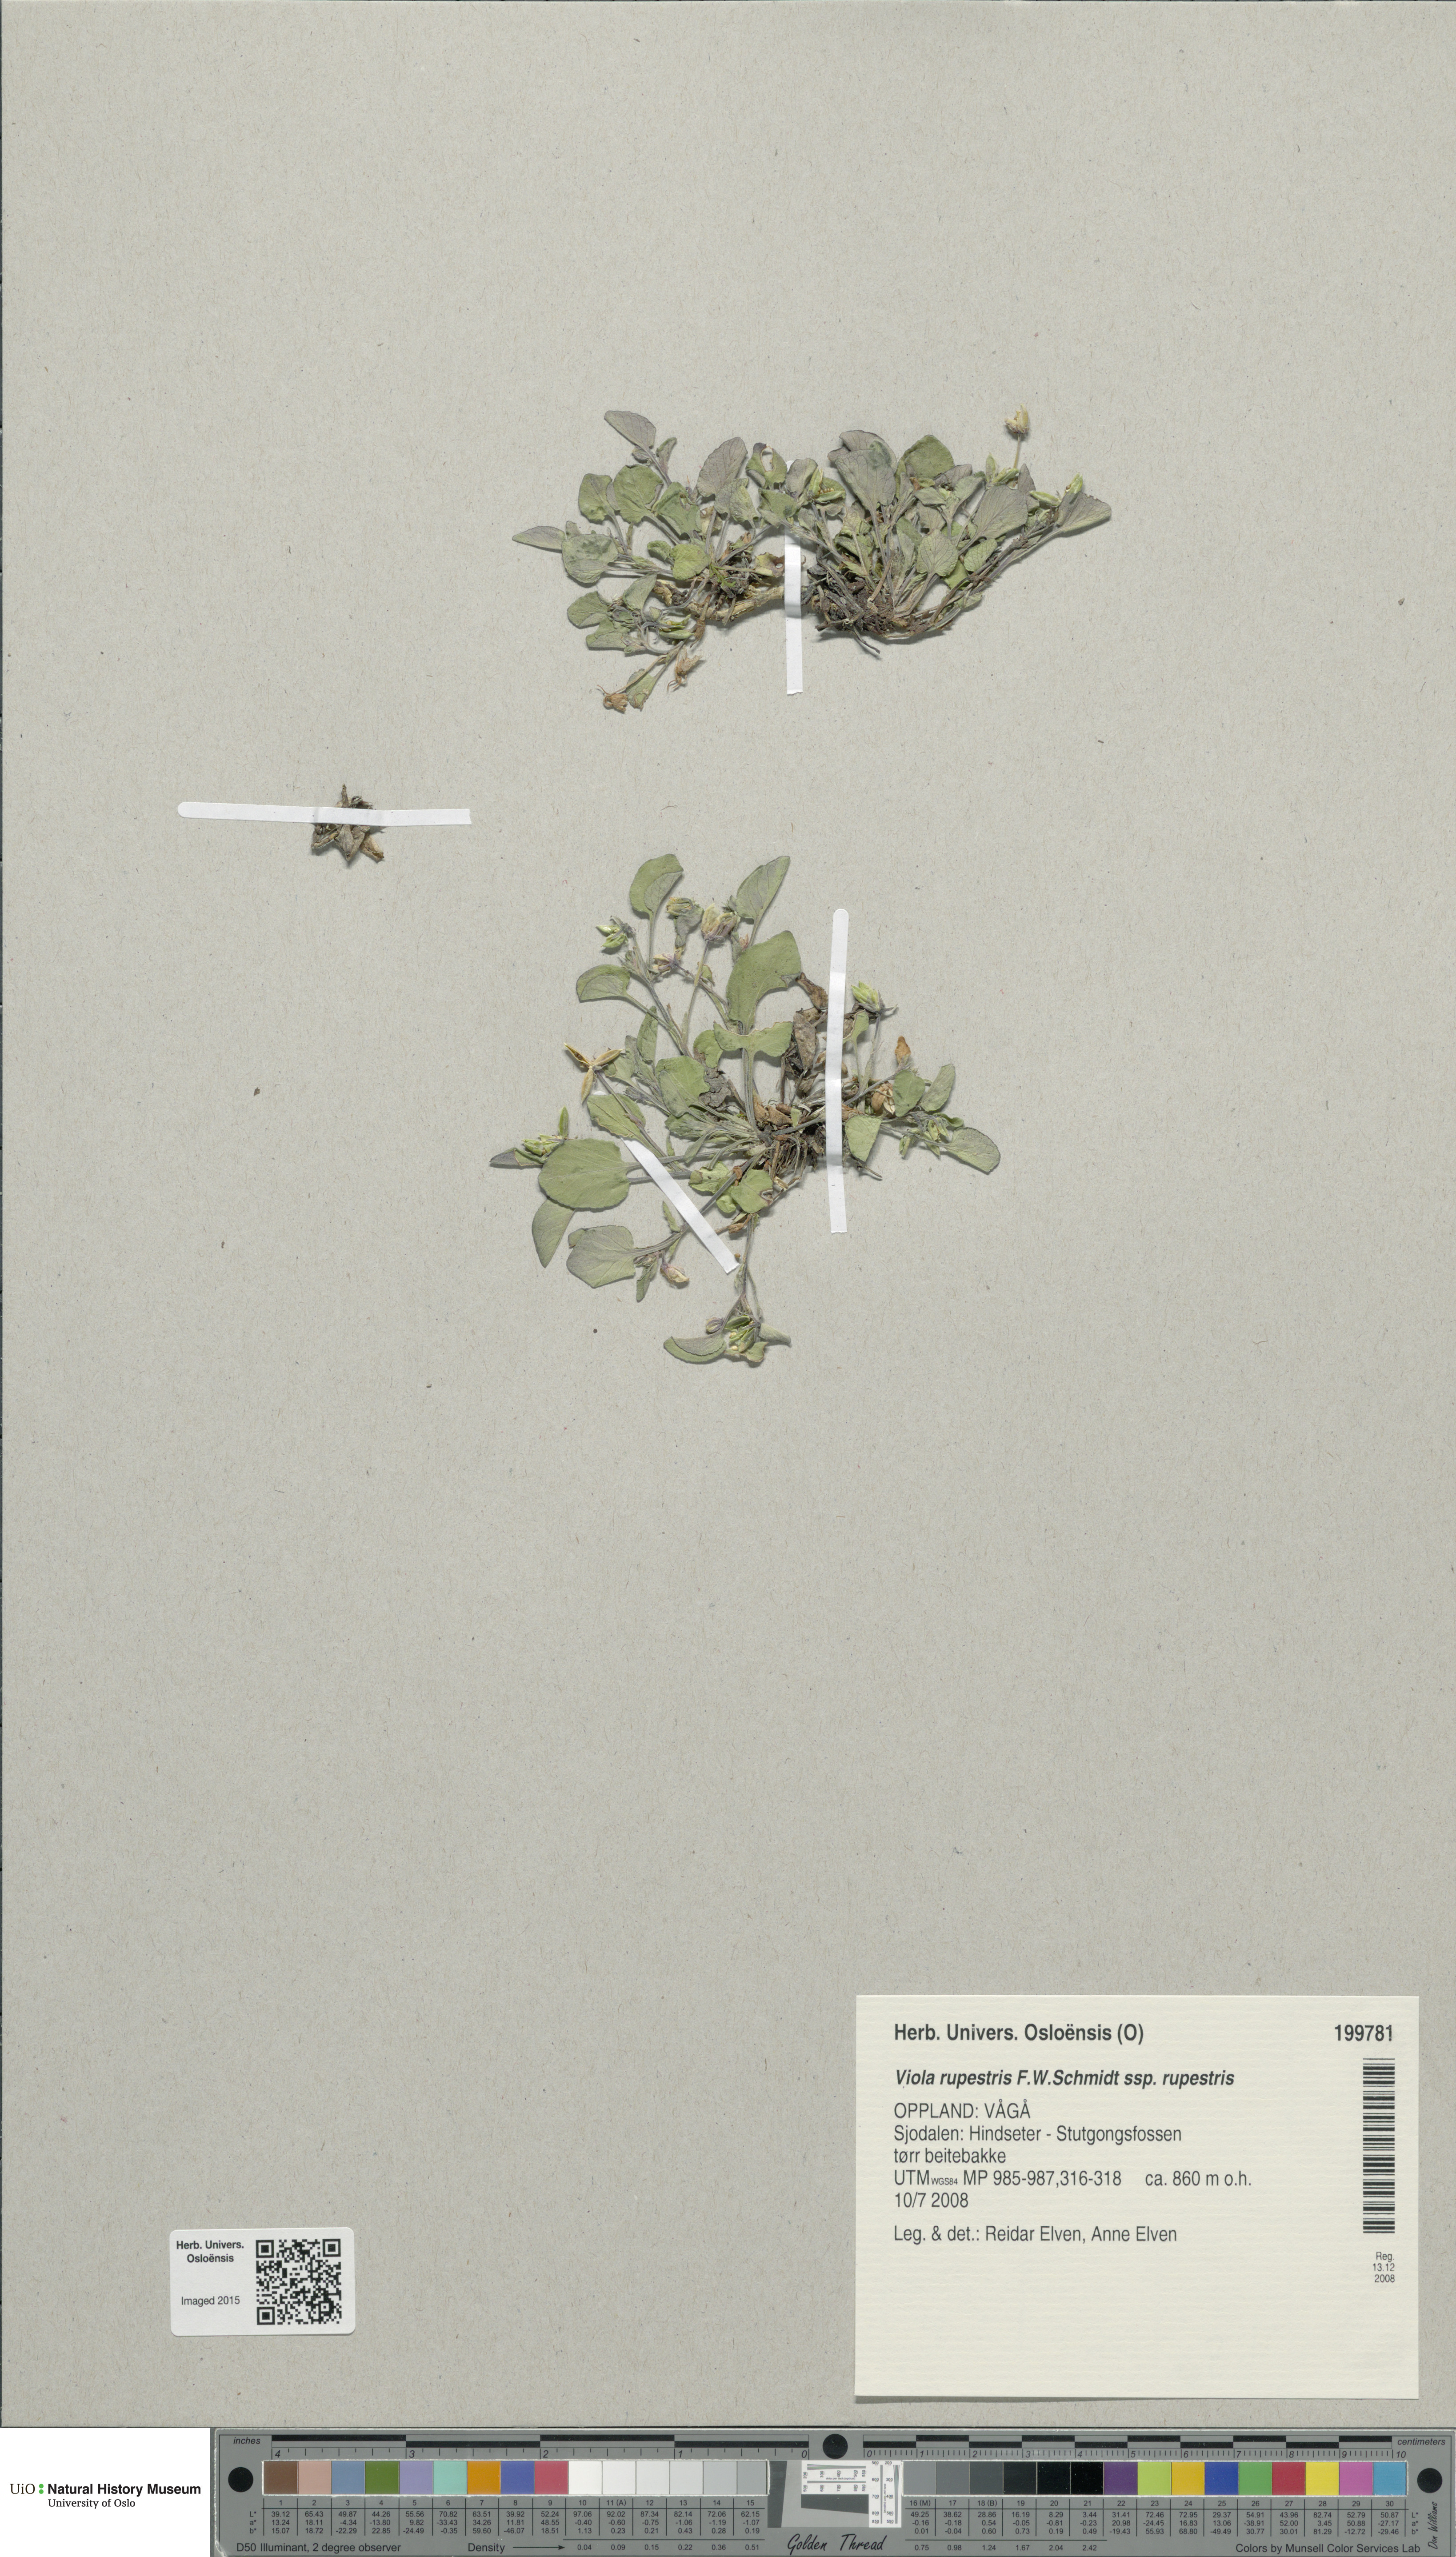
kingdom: Plantae
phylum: Tracheophyta
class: Magnoliopsida
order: Malpighiales
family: Violaceae
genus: Viola
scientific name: Viola rupestris
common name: Teesdale violet
